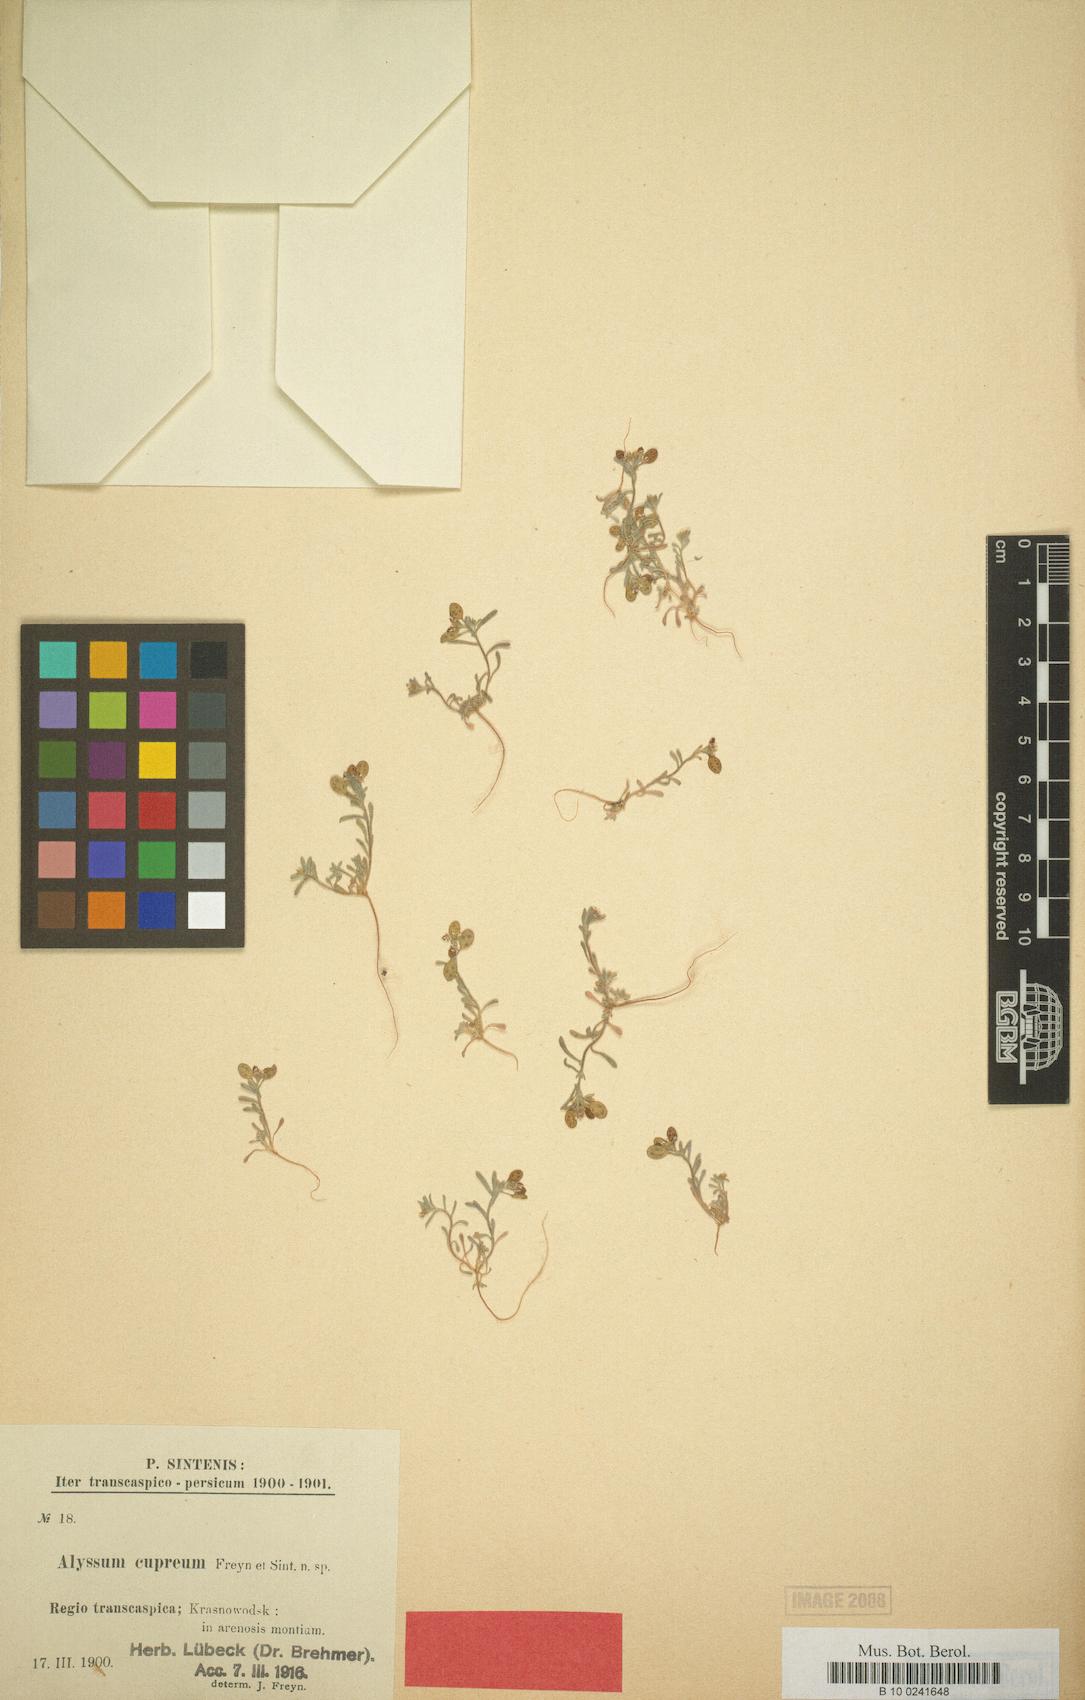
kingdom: Plantae
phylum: Tracheophyta
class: Magnoliopsida
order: Brassicales
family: Brassicaceae
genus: Meniocus
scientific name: Meniocus linifolius
